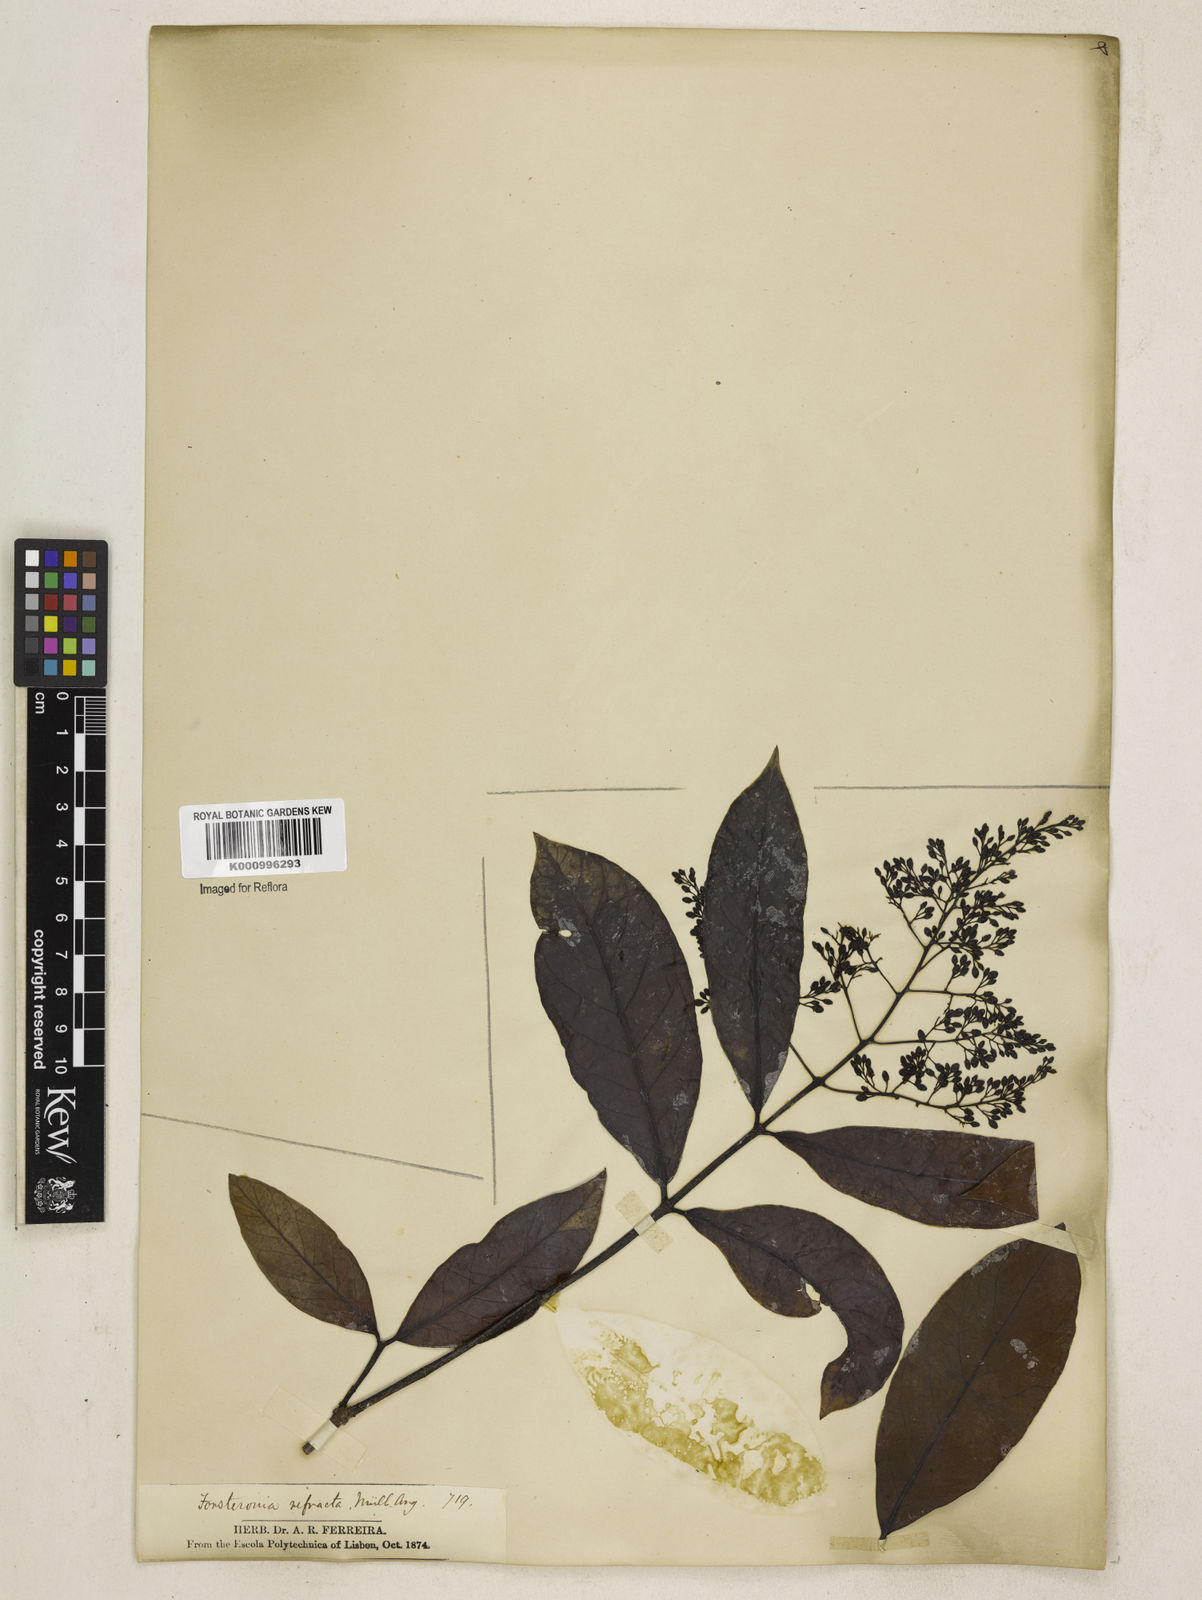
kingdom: Plantae
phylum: Tracheophyta
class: Magnoliopsida
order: Gentianales
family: Apocynaceae
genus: Forsteronia
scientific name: Forsteronia
